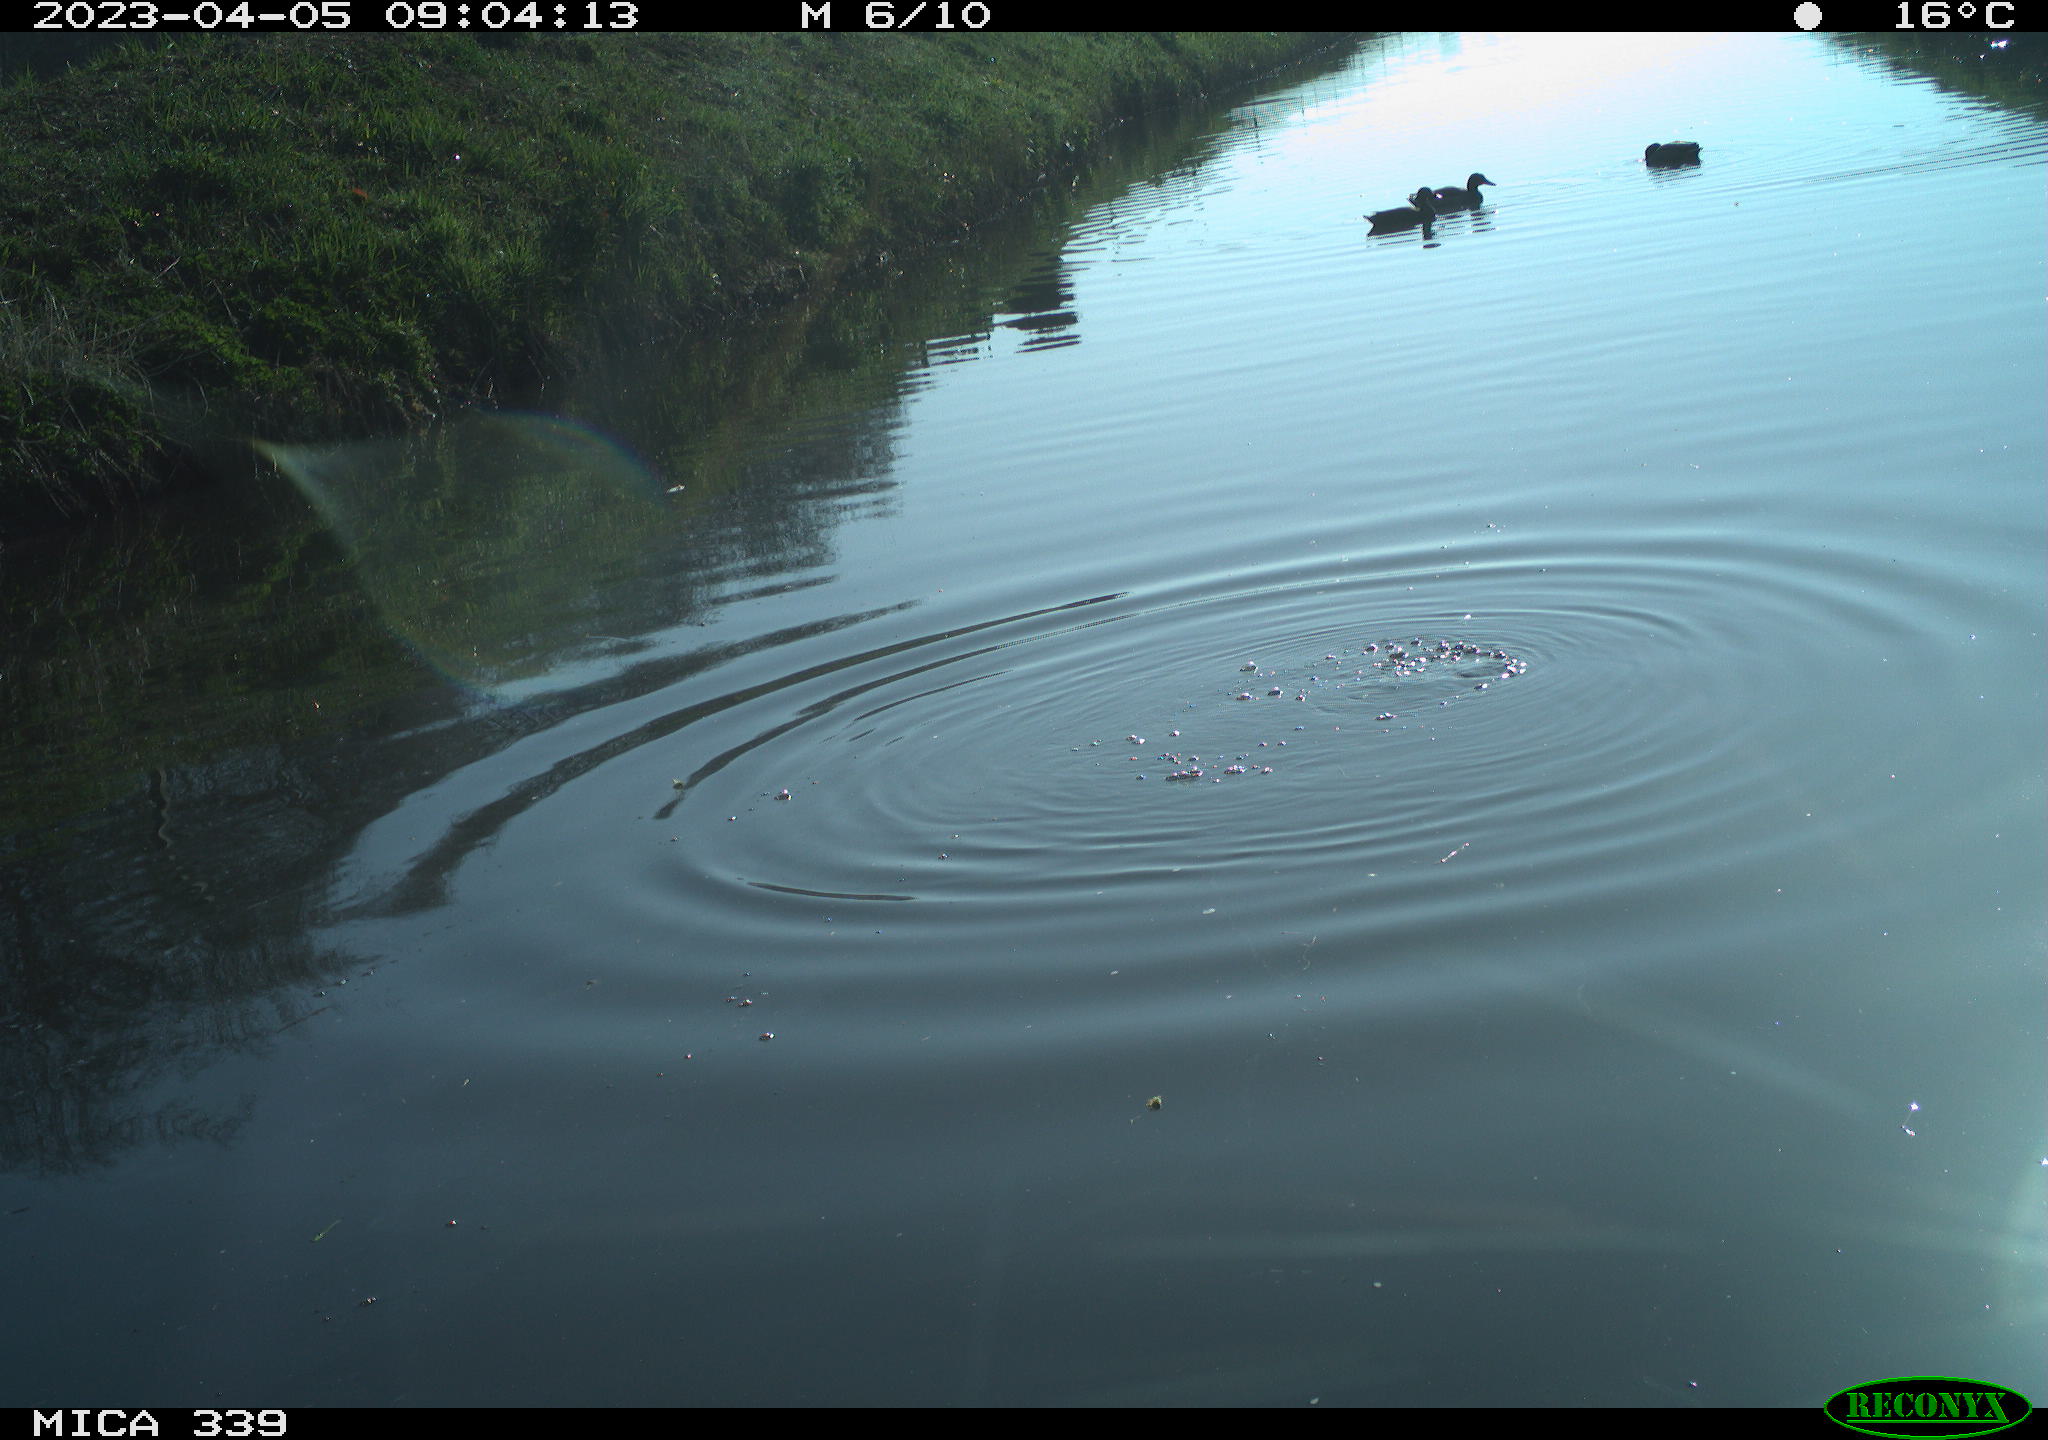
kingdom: Animalia
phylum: Chordata
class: Aves
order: Anseriformes
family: Anatidae
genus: Anas
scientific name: Anas
